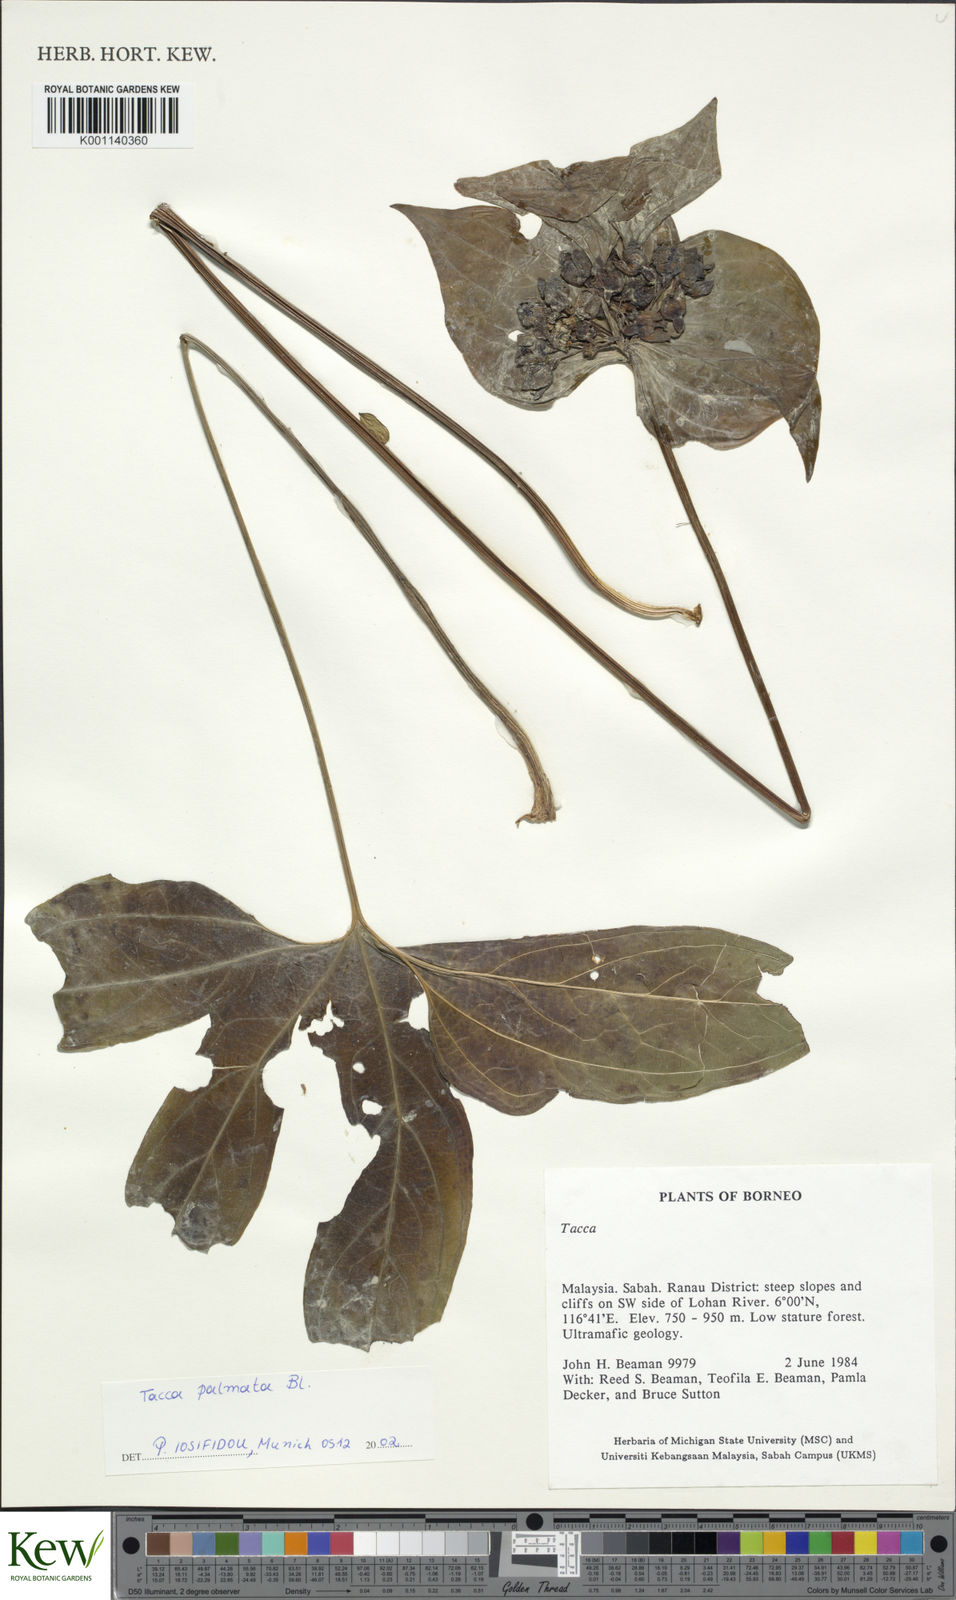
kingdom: Plantae
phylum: Tracheophyta
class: Liliopsida
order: Dioscoreales
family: Dioscoreaceae
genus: Tacca
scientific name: Tacca
